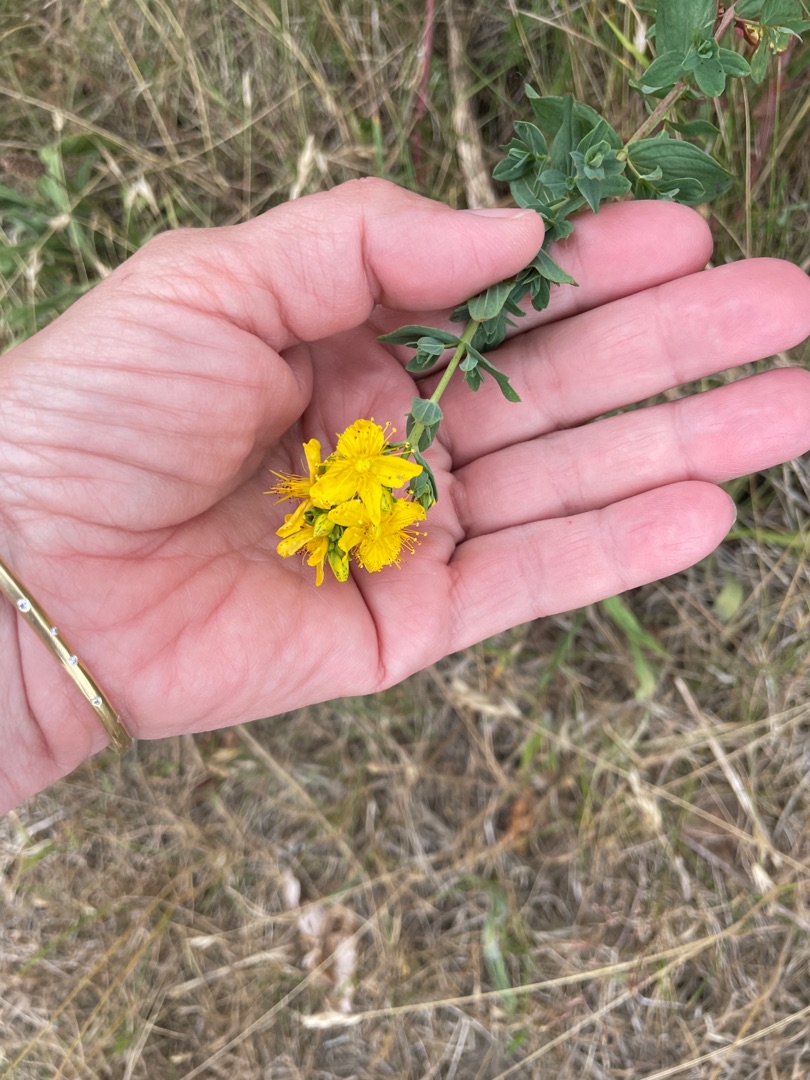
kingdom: Plantae
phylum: Tracheophyta
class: Magnoliopsida
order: Malpighiales
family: Hypericaceae
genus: Hypericum
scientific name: Hypericum perforatum
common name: Prikbladet perikon
